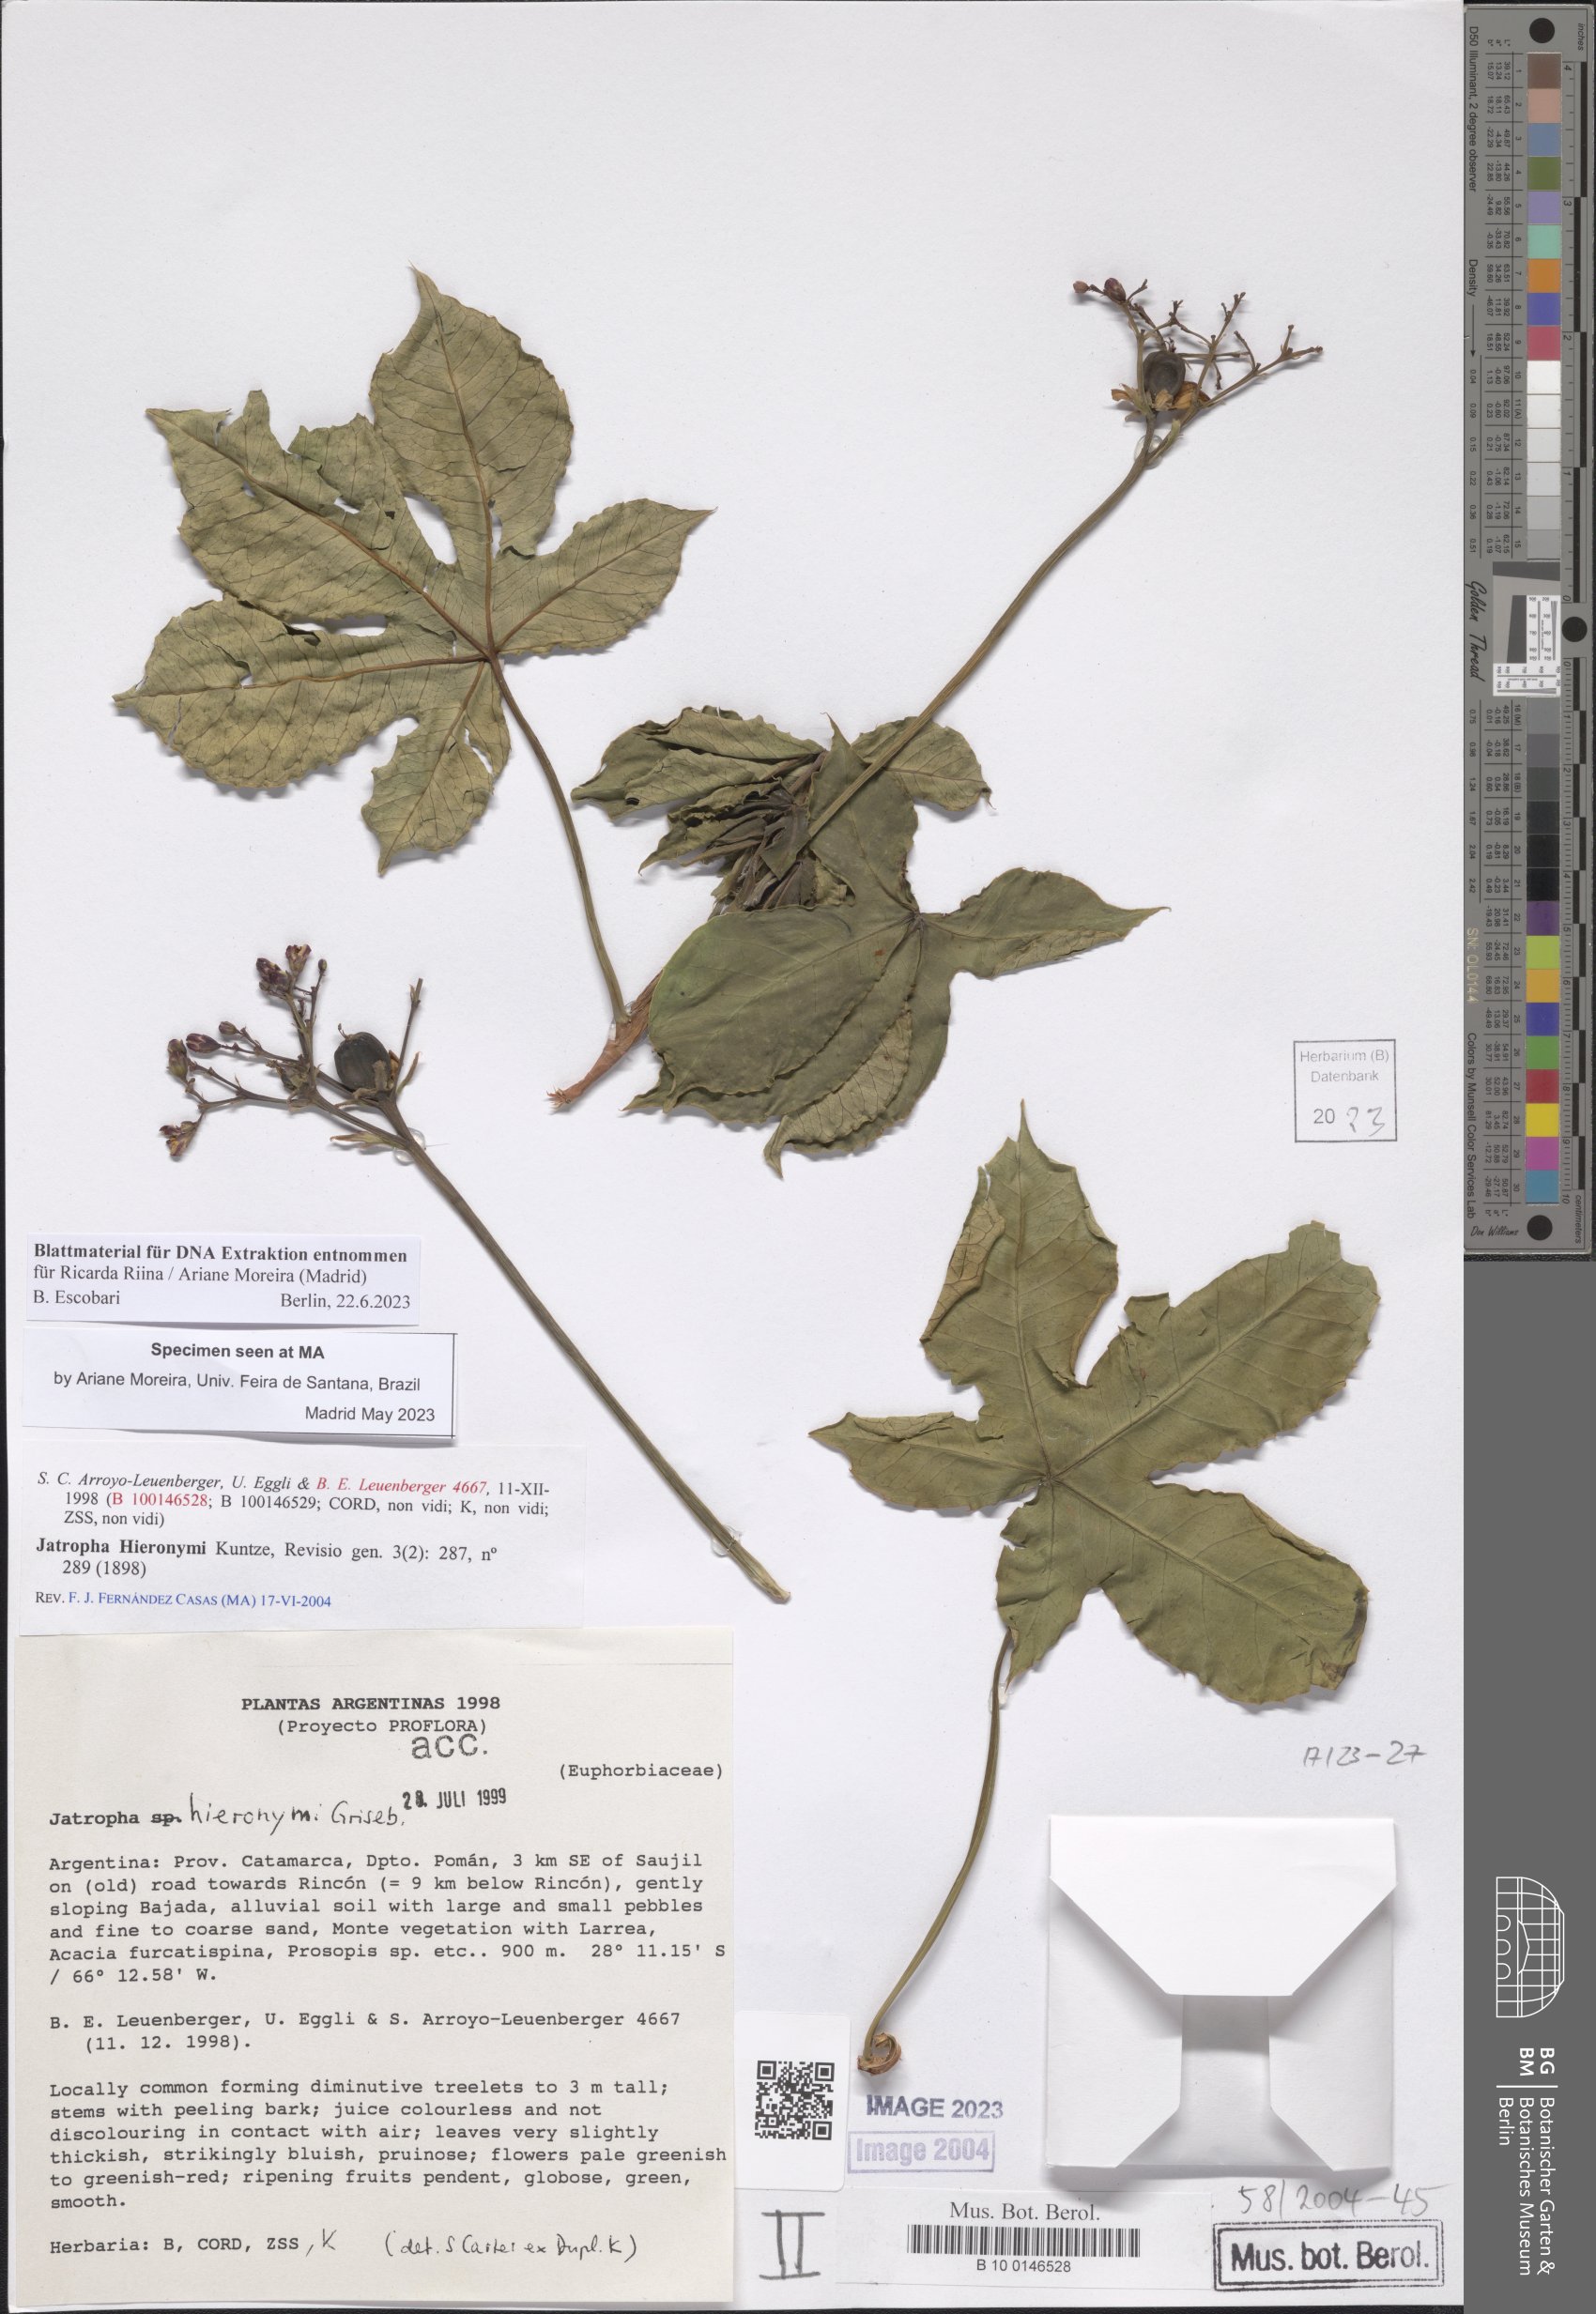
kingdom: Plantae
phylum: Tracheophyta
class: Magnoliopsida
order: Malpighiales
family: Euphorbiaceae
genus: Jatropha
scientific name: Jatropha hieronymi
